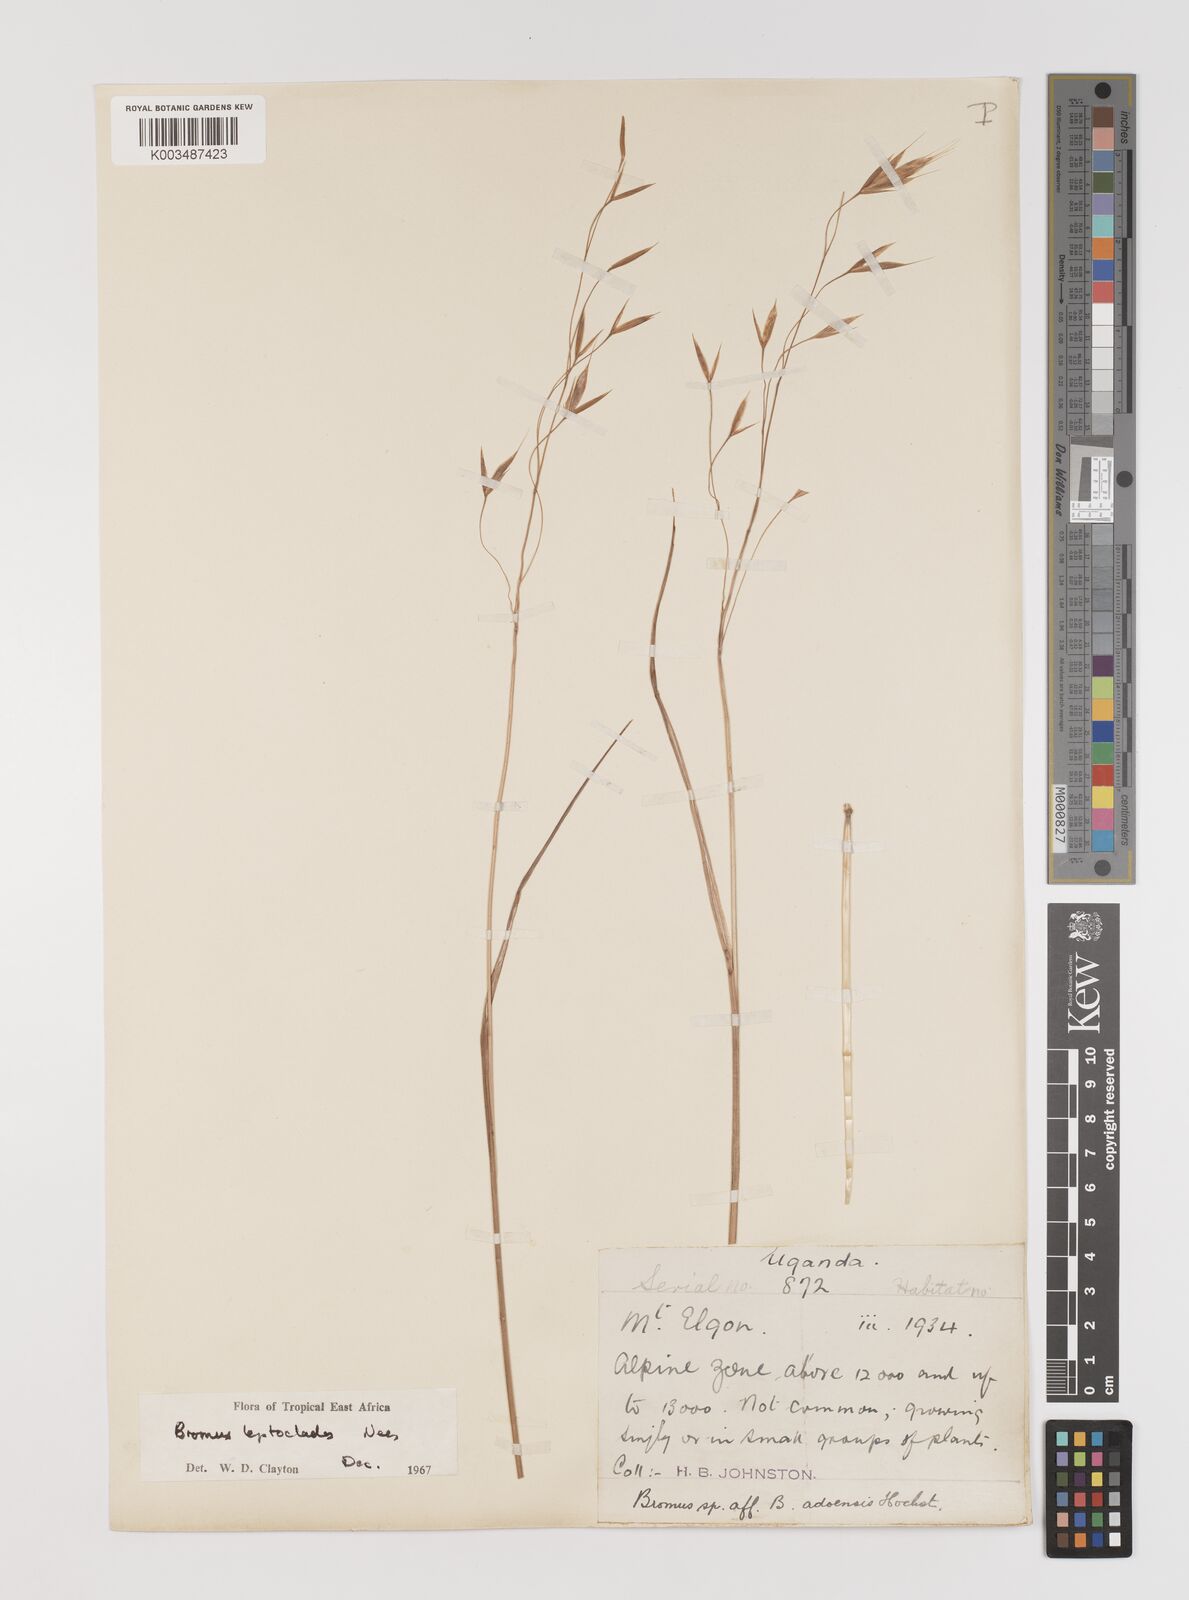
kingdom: Plantae
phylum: Tracheophyta
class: Liliopsida
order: Poales
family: Poaceae
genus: Bromus
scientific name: Bromus leptoclados
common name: Mountain bromegrass
